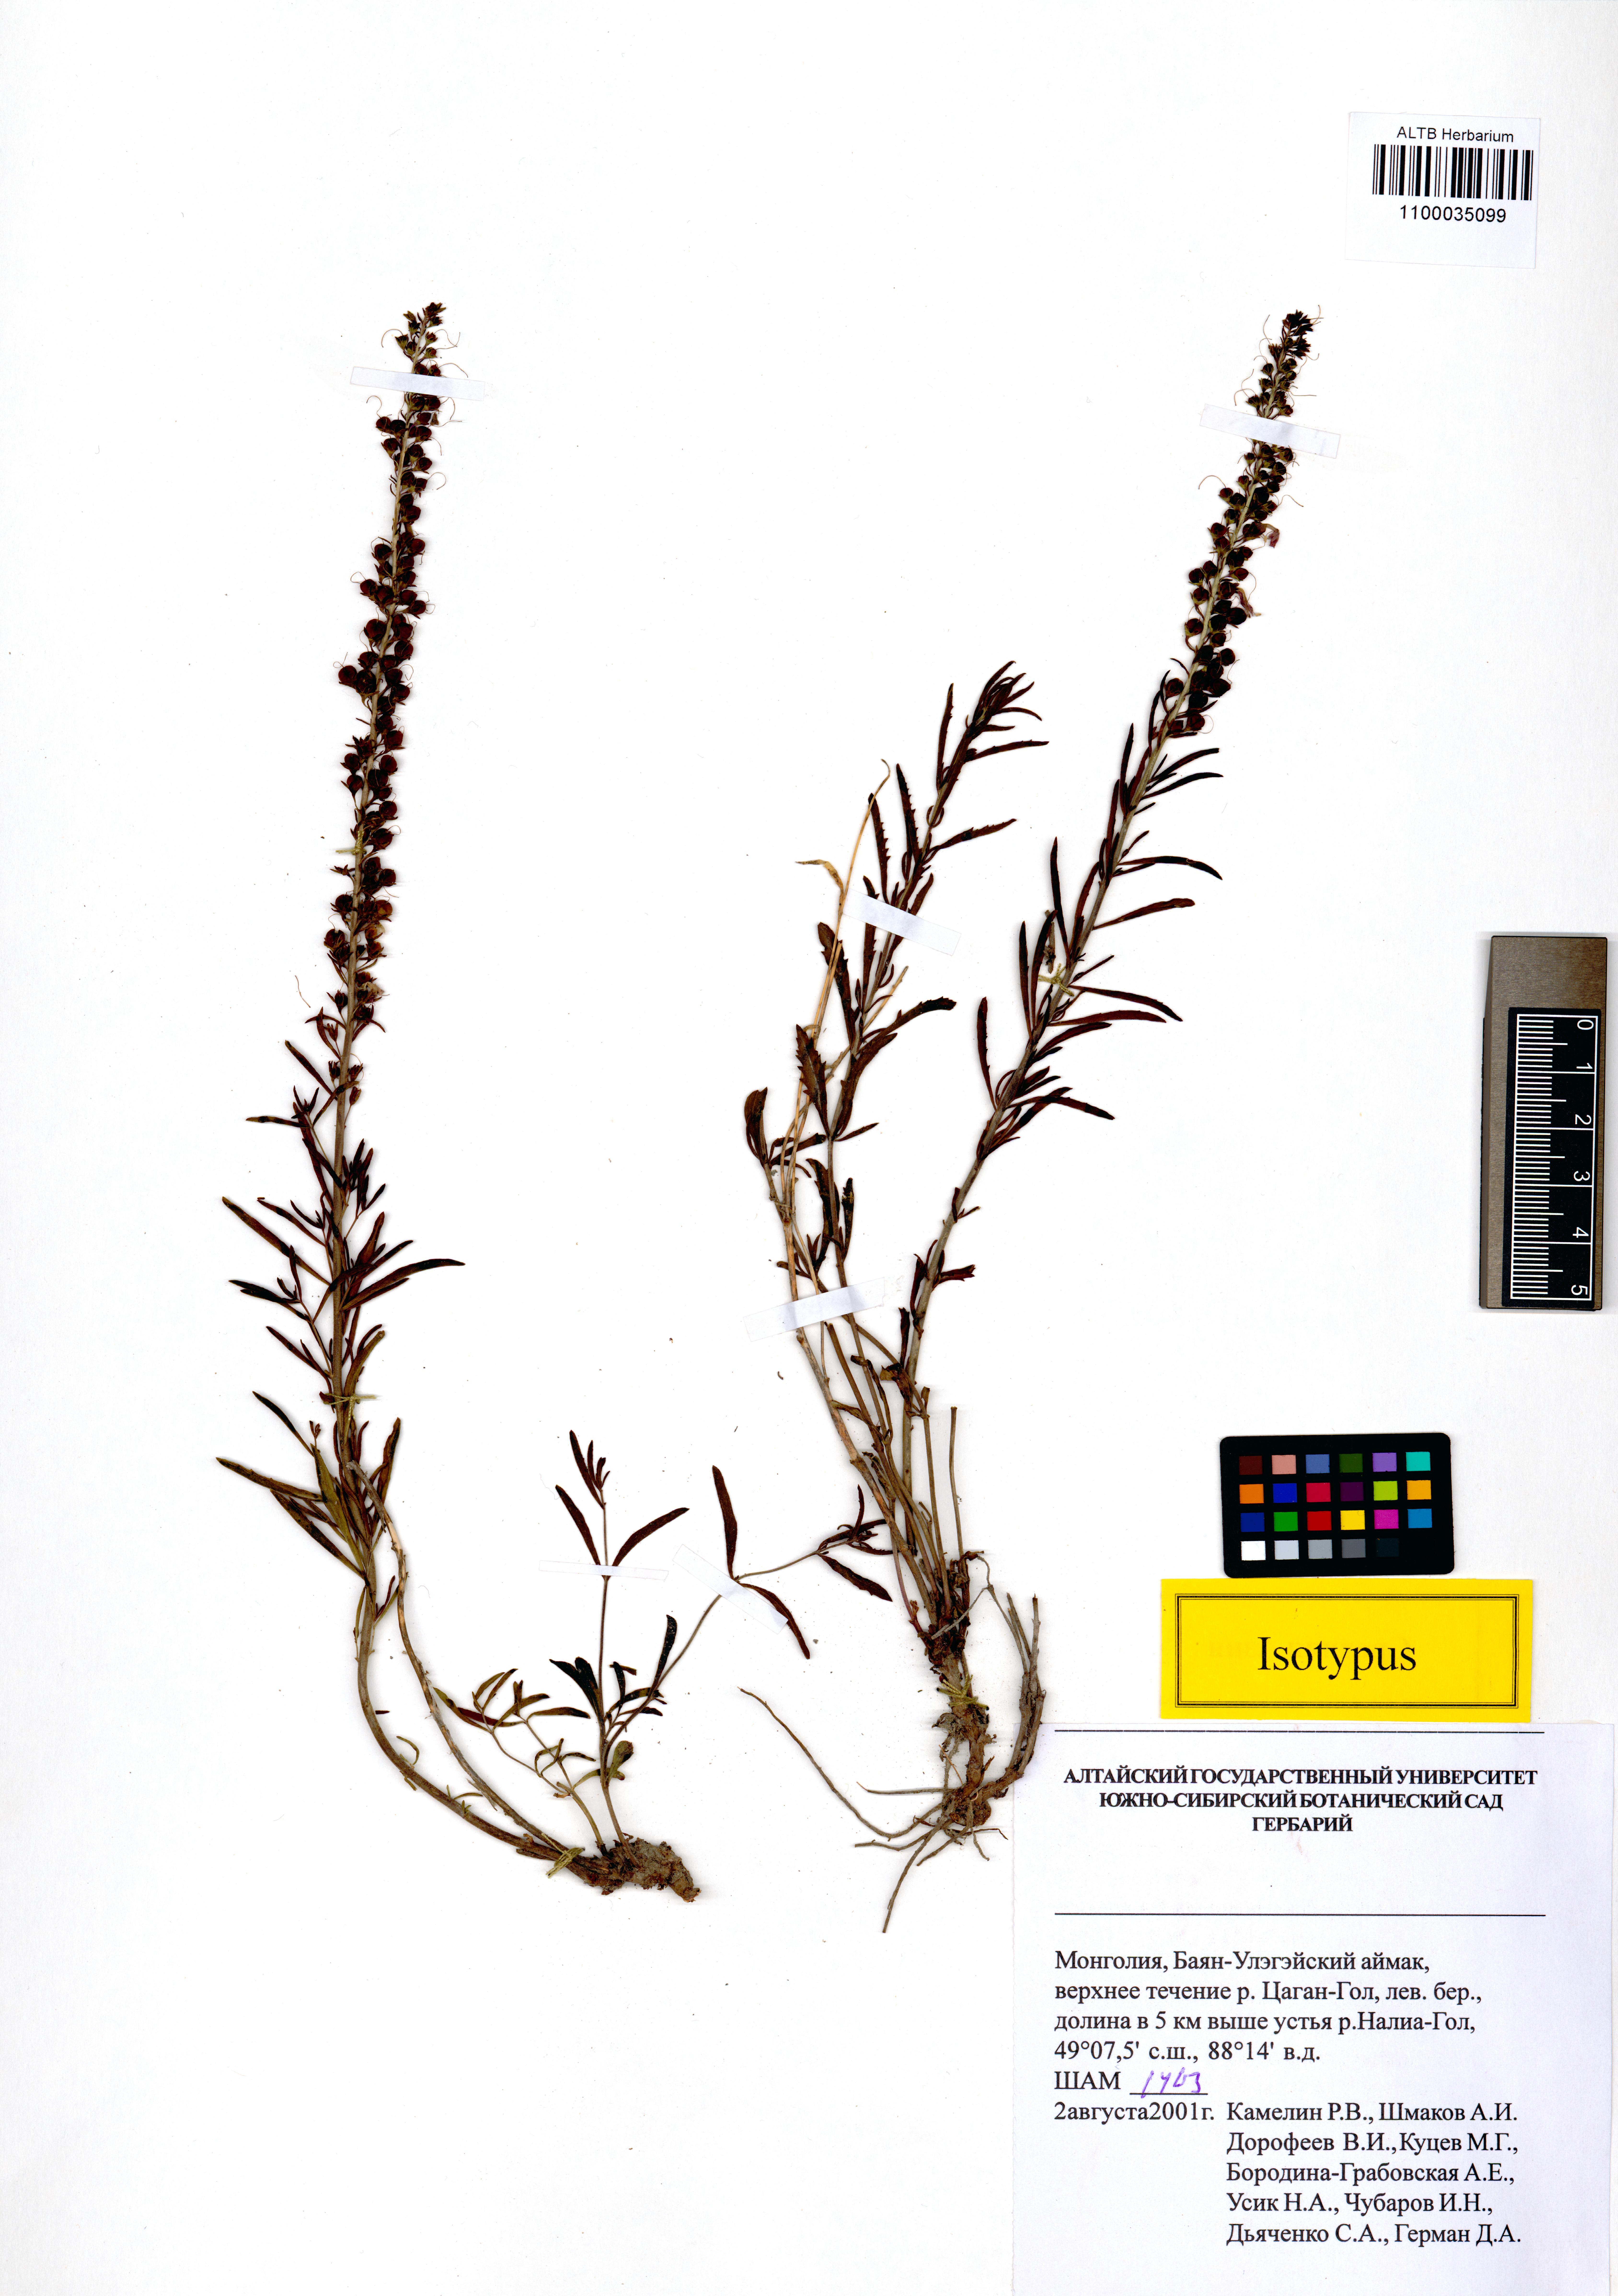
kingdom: Plantae
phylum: Tracheophyta
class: Magnoliopsida
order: Lamiales
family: Plantaginaceae
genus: Veronica
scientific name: Veronica sapozhnikovii
